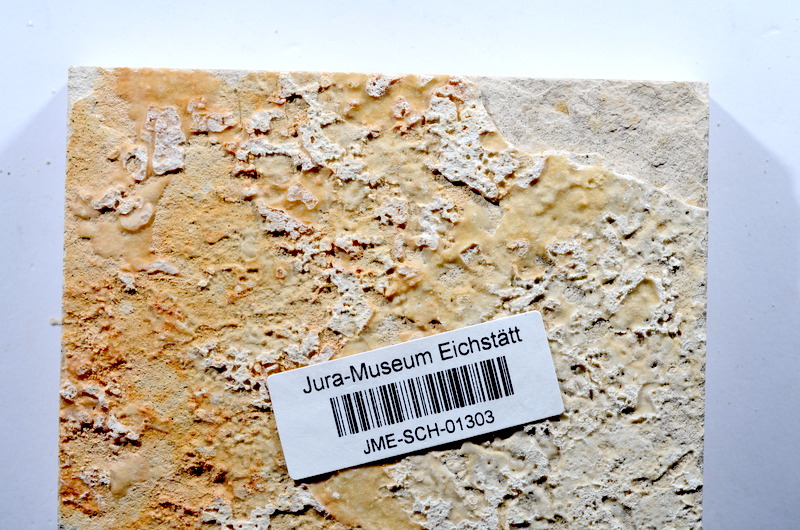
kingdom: Animalia
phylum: Chordata
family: Ascalaboidae
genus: Tharsis
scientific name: Tharsis dubius
